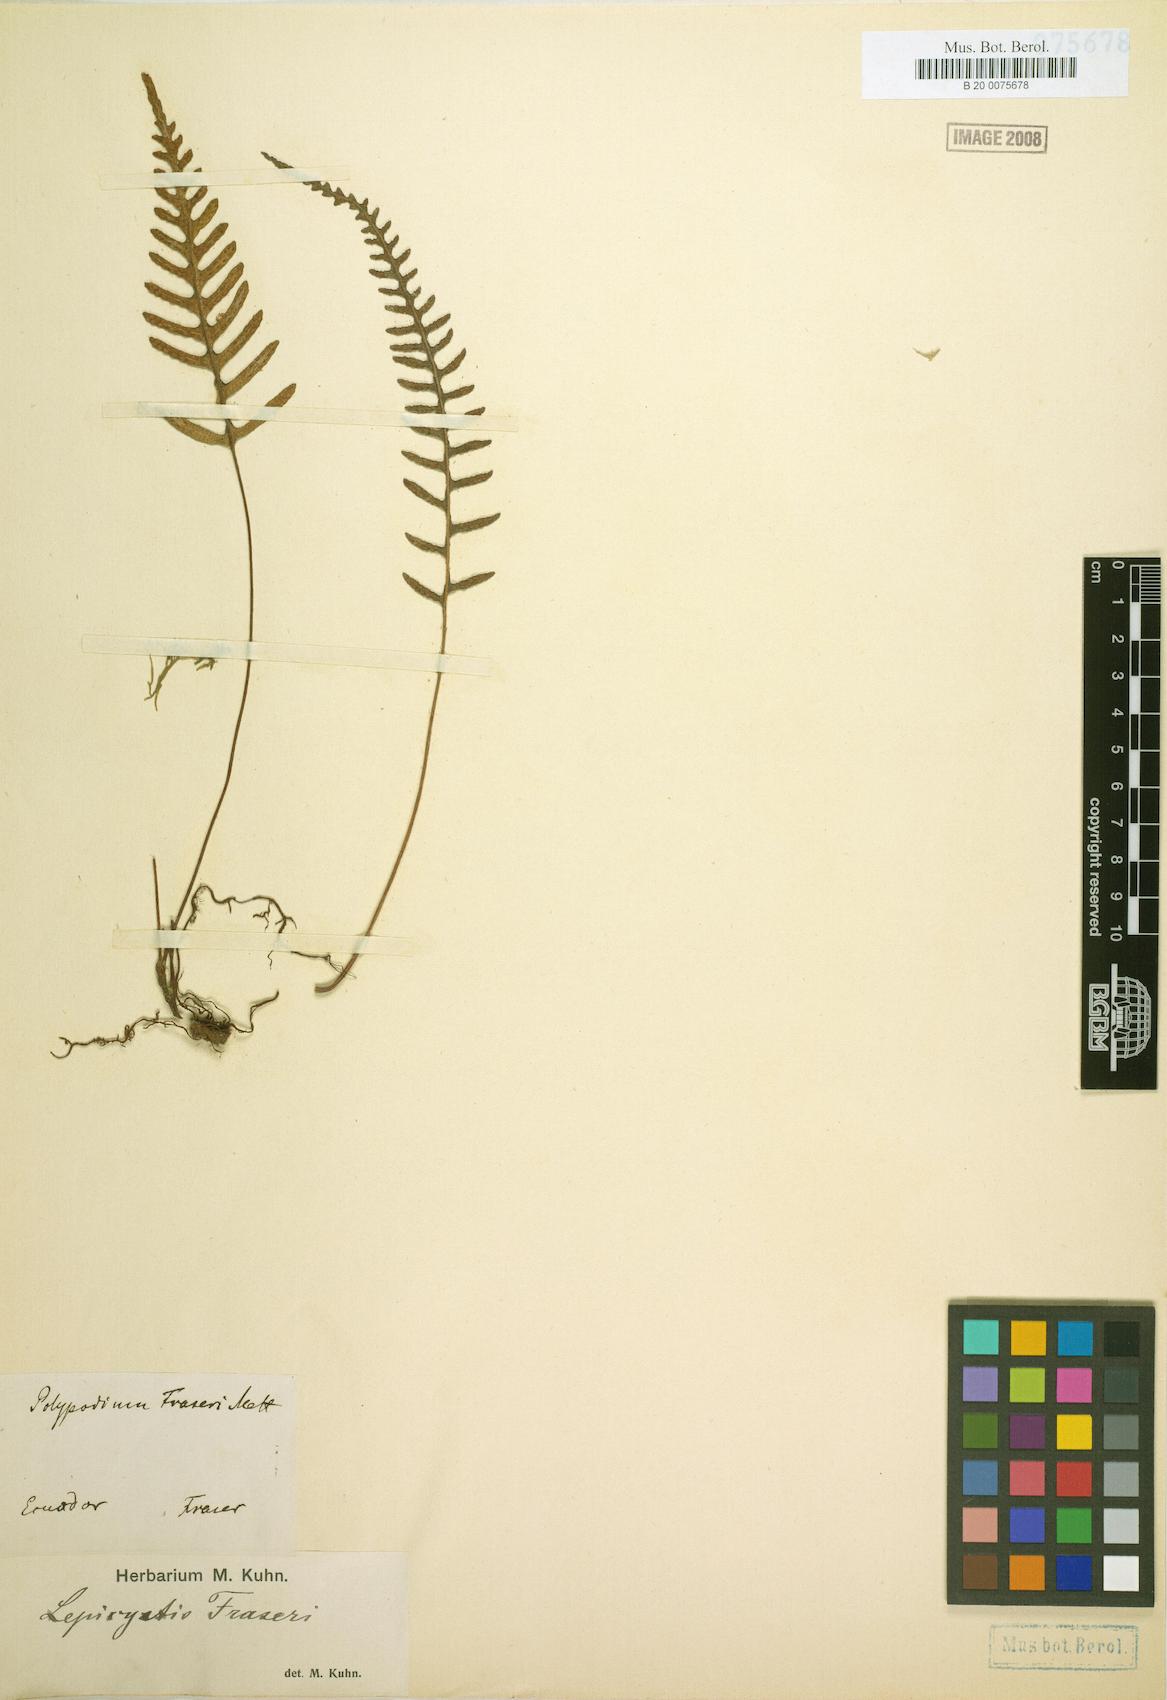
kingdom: Plantae
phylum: Tracheophyta
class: Polypodiopsida
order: Polypodiales
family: Polypodiaceae
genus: Pleopeltis
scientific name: Pleopeltis fraseri
